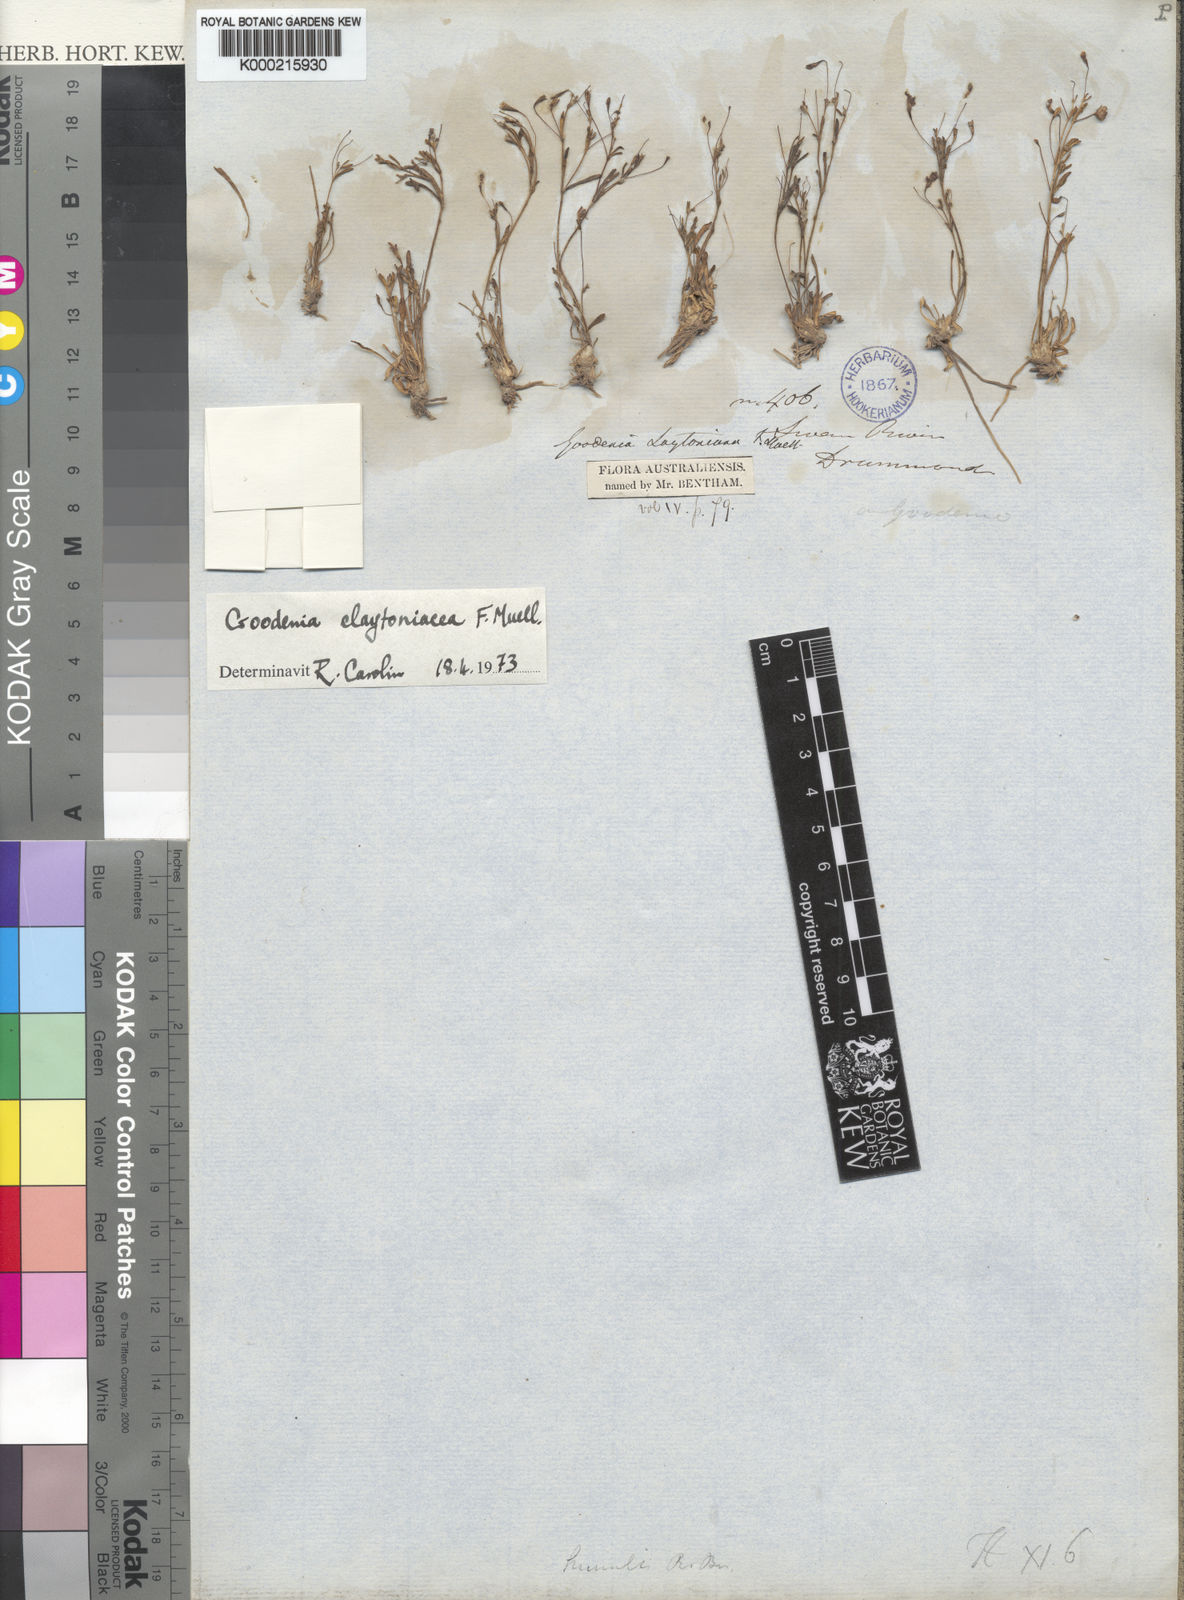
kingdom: Plantae
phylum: Tracheophyta
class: Magnoliopsida
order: Asterales
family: Goodeniaceae
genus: Goodenia
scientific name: Goodenia claytoniacea
